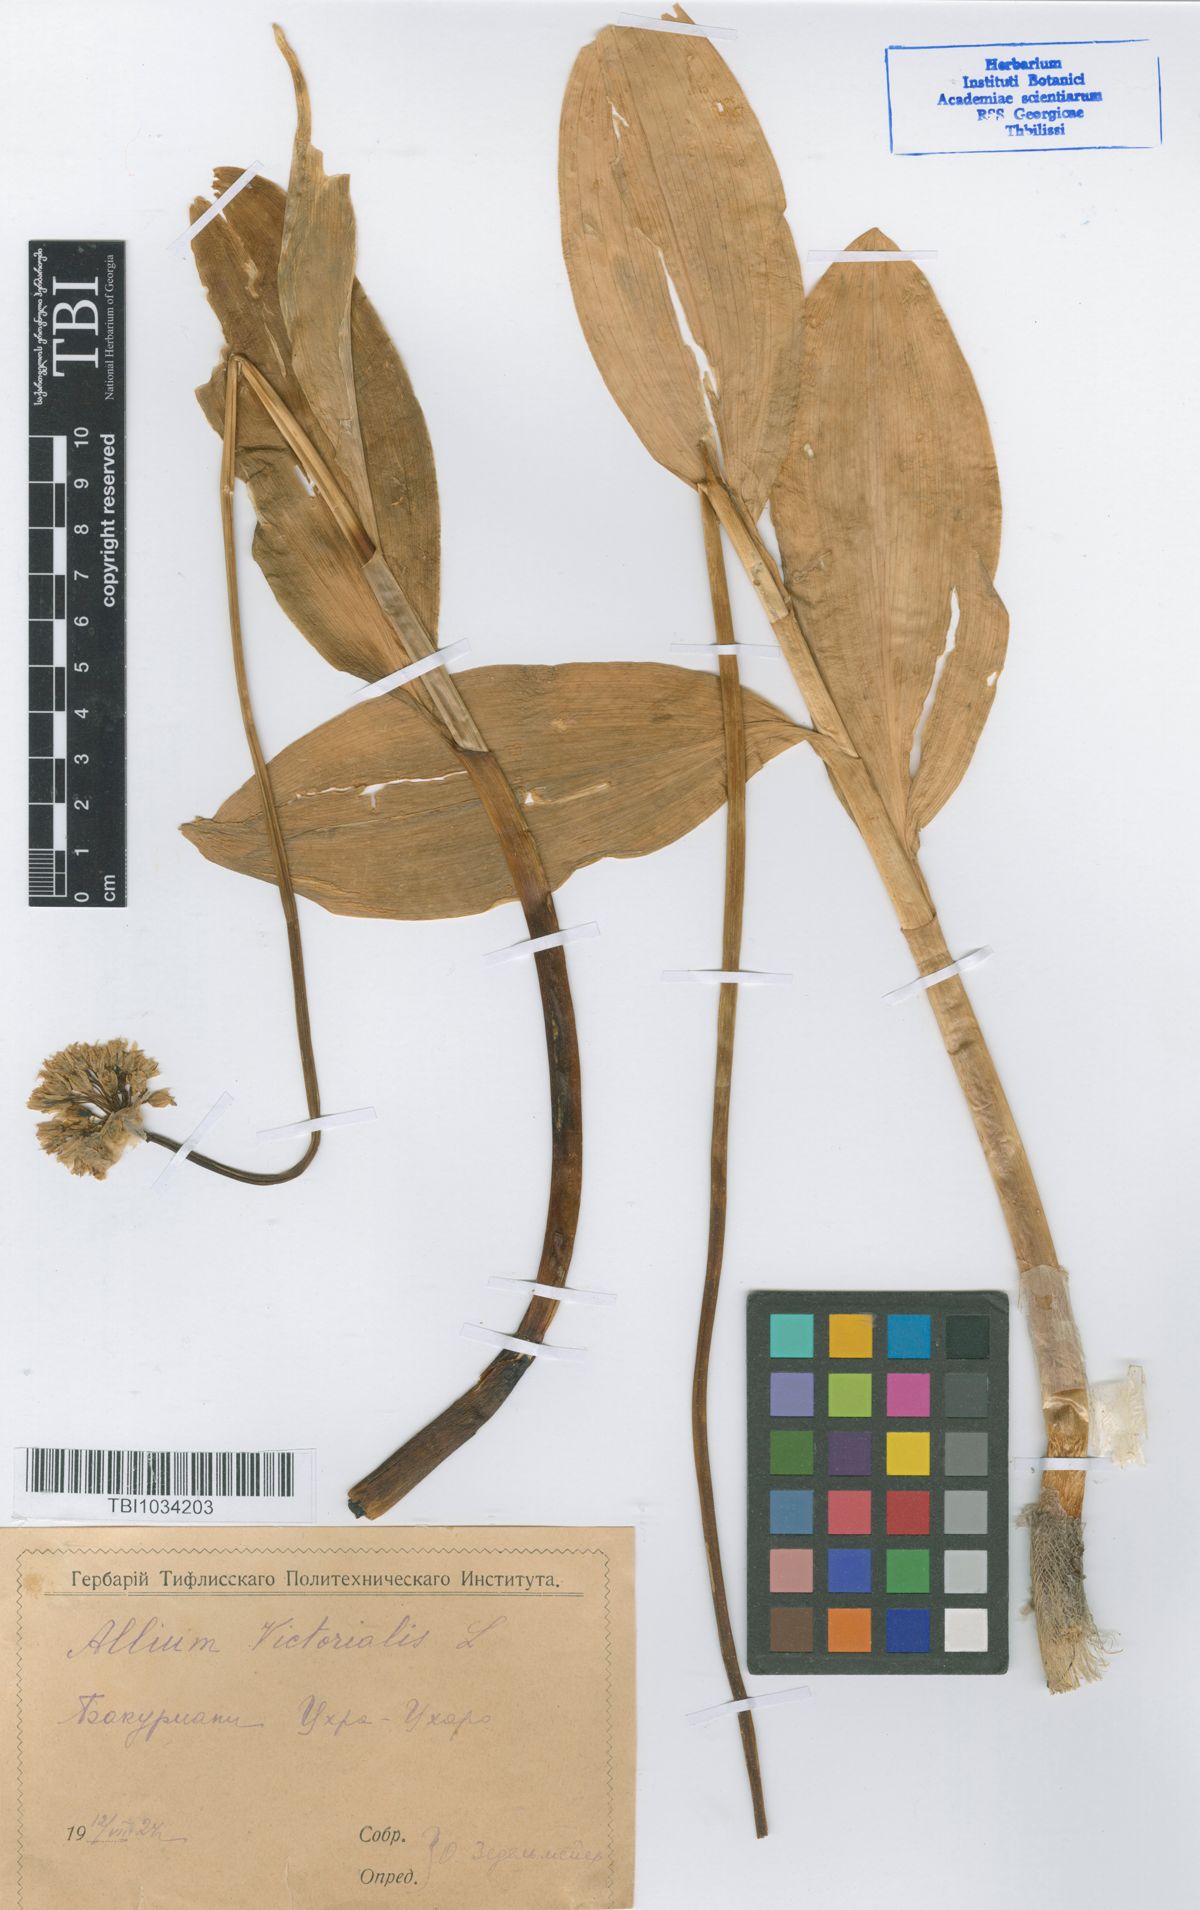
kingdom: Plantae
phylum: Tracheophyta
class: Liliopsida
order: Asparagales
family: Amaryllidaceae
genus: Allium
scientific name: Allium victorialis
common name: Alpine leek
